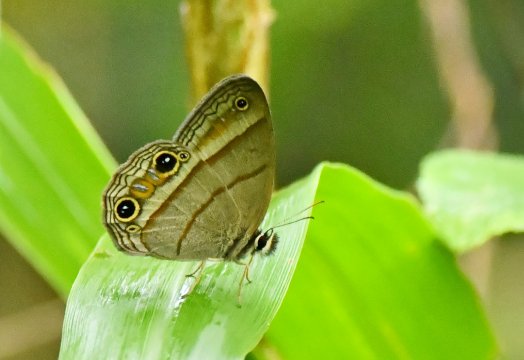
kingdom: Animalia
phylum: Arthropoda
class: Insecta
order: Lepidoptera
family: Nymphalidae
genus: Euptychia
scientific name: Euptychia Cissia pompilia
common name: Plain Satyr
